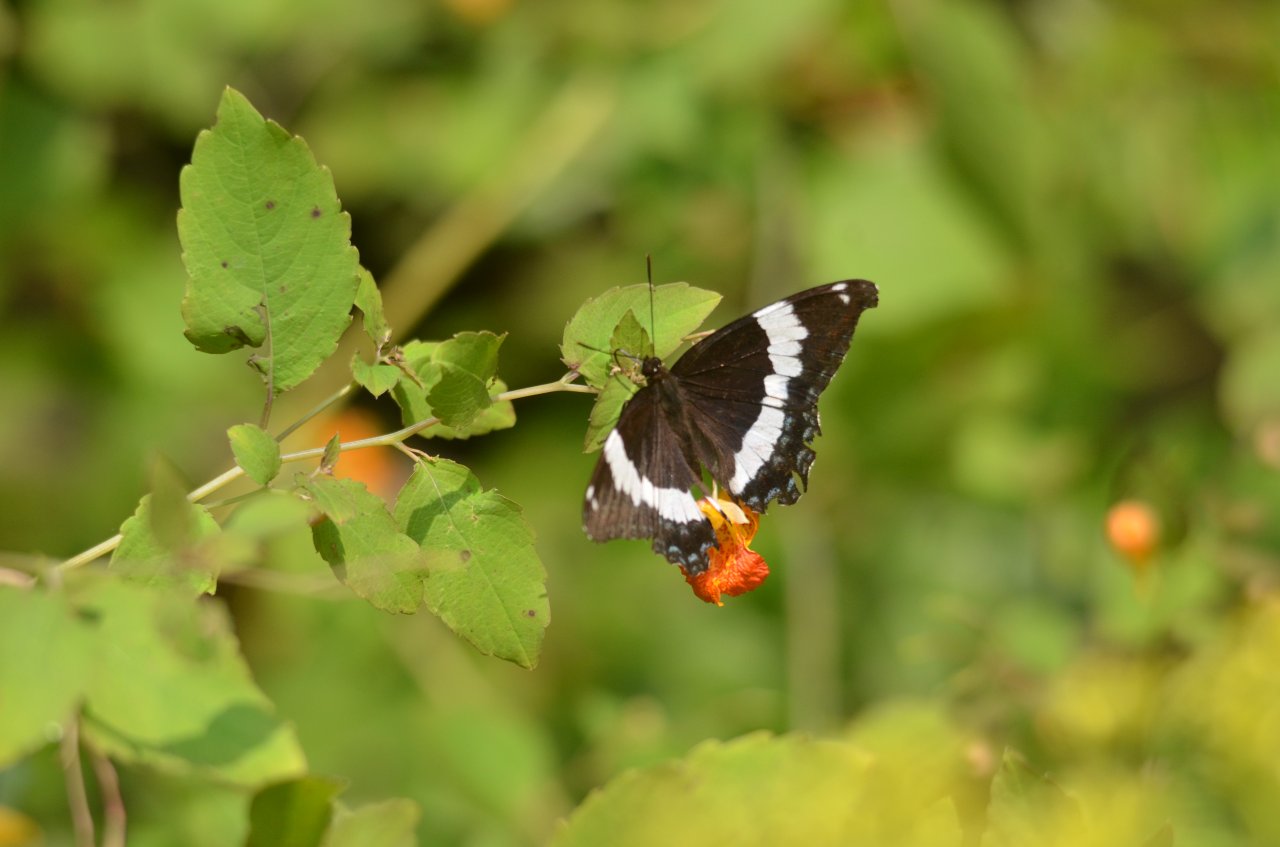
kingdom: Animalia
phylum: Arthropoda
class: Insecta
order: Lepidoptera
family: Nymphalidae
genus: Limenitis
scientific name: Limenitis arthemis
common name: Red-spotted Admiral
